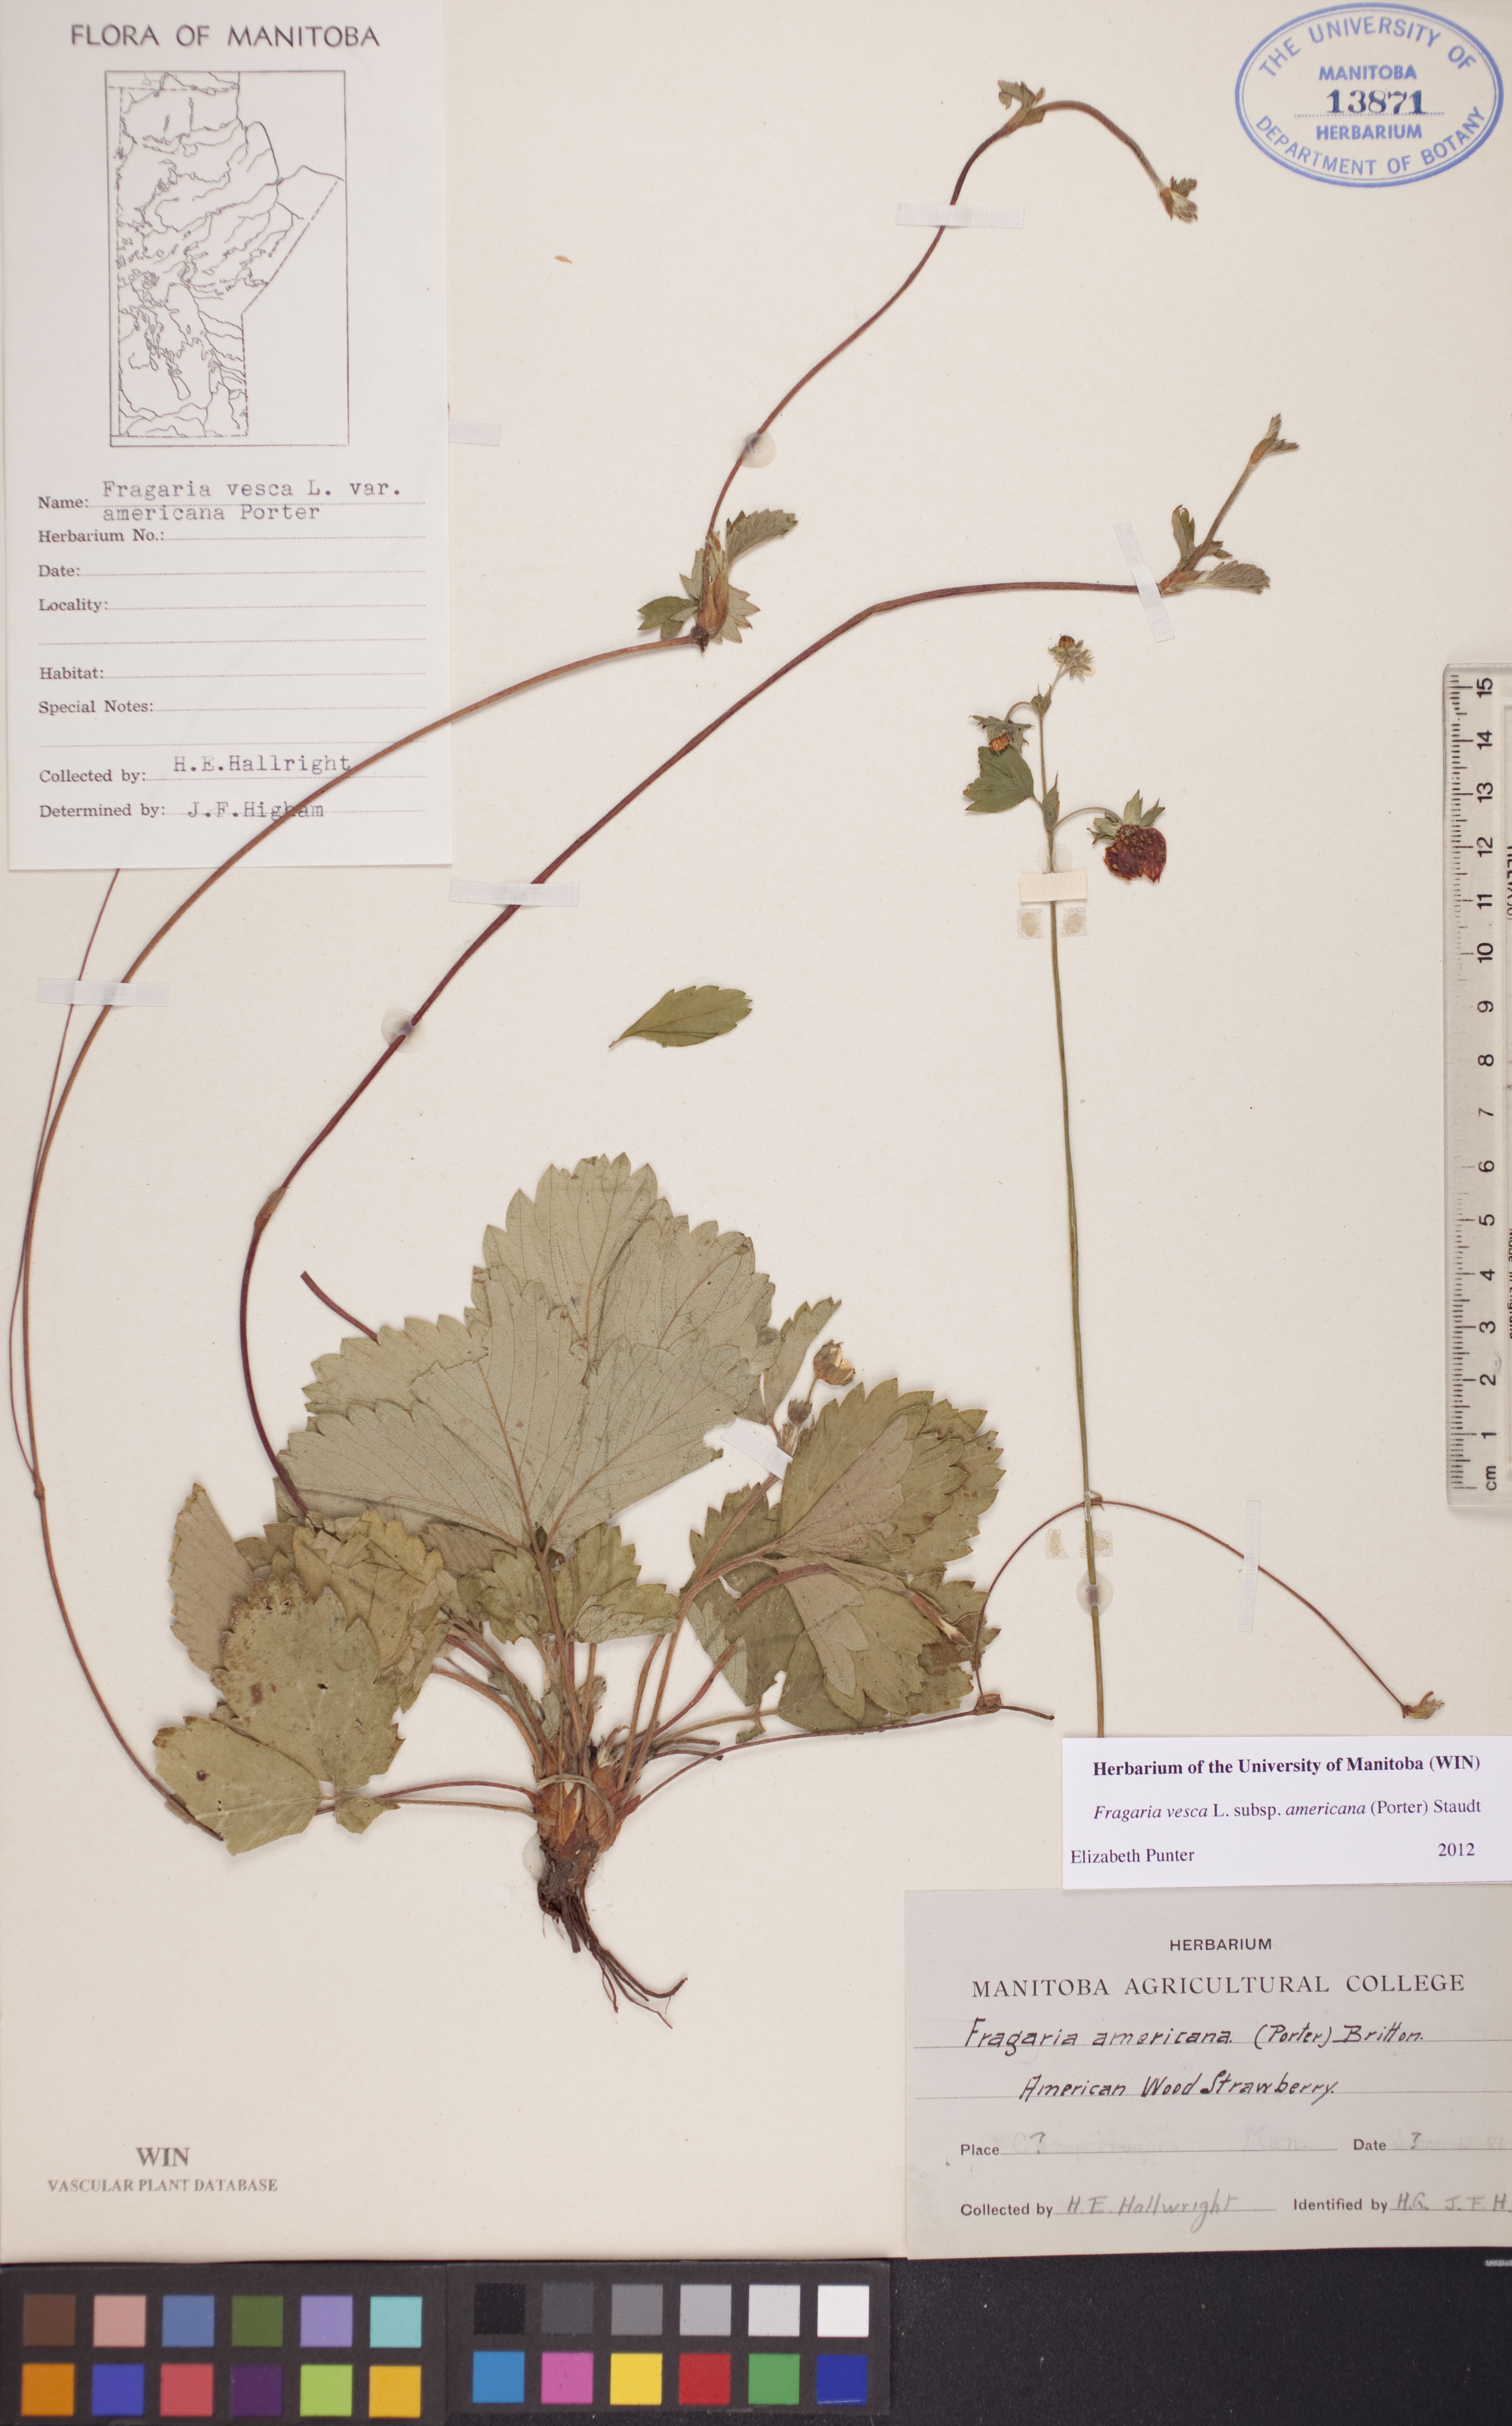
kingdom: Plantae
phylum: Tracheophyta
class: Magnoliopsida
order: Rosales
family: Rosaceae
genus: Fragaria
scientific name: Fragaria vesca
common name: Wild strawberry
